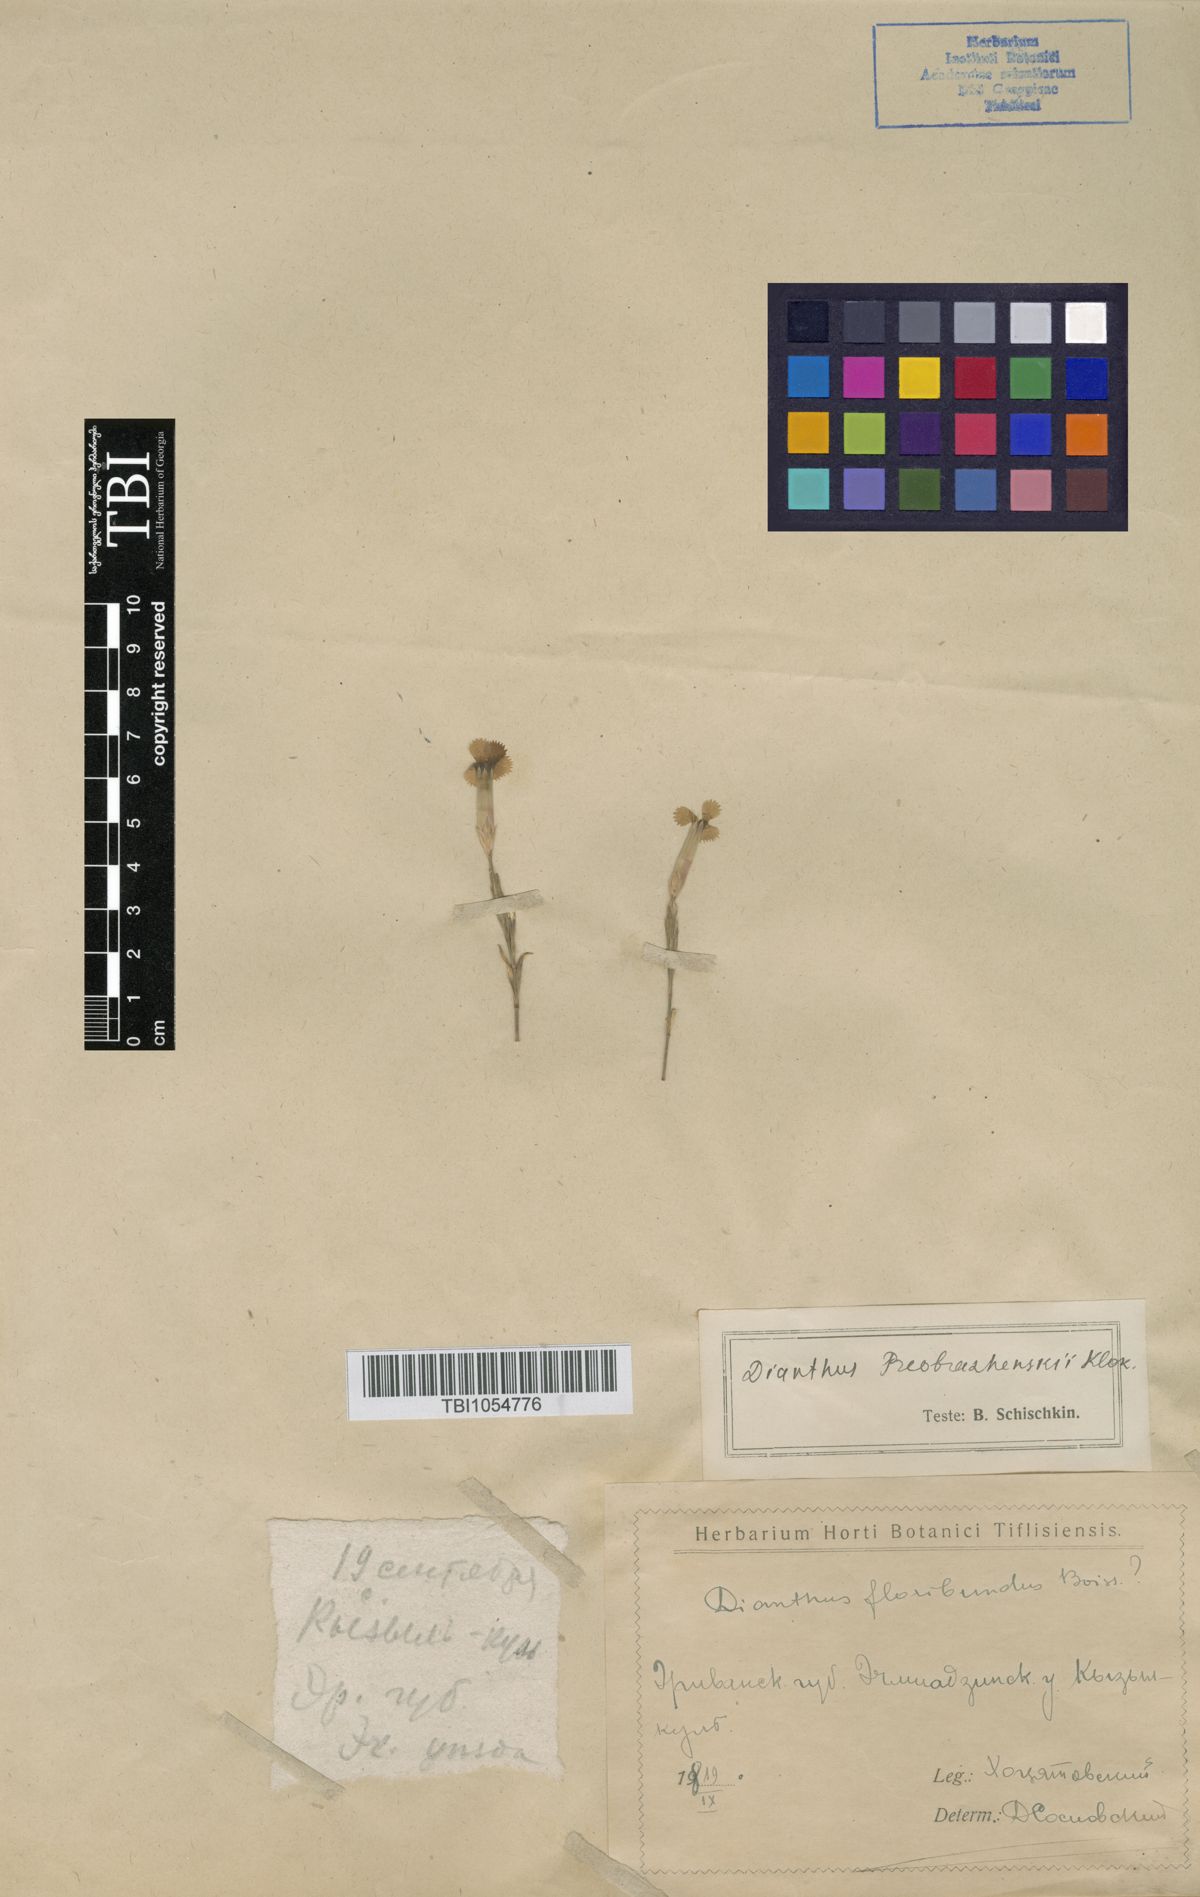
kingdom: Plantae
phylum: Tracheophyta
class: Magnoliopsida
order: Caryophyllales
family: Caryophyllaceae
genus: Dianthus
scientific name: Dianthus bicolor
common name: Bicolour pink
